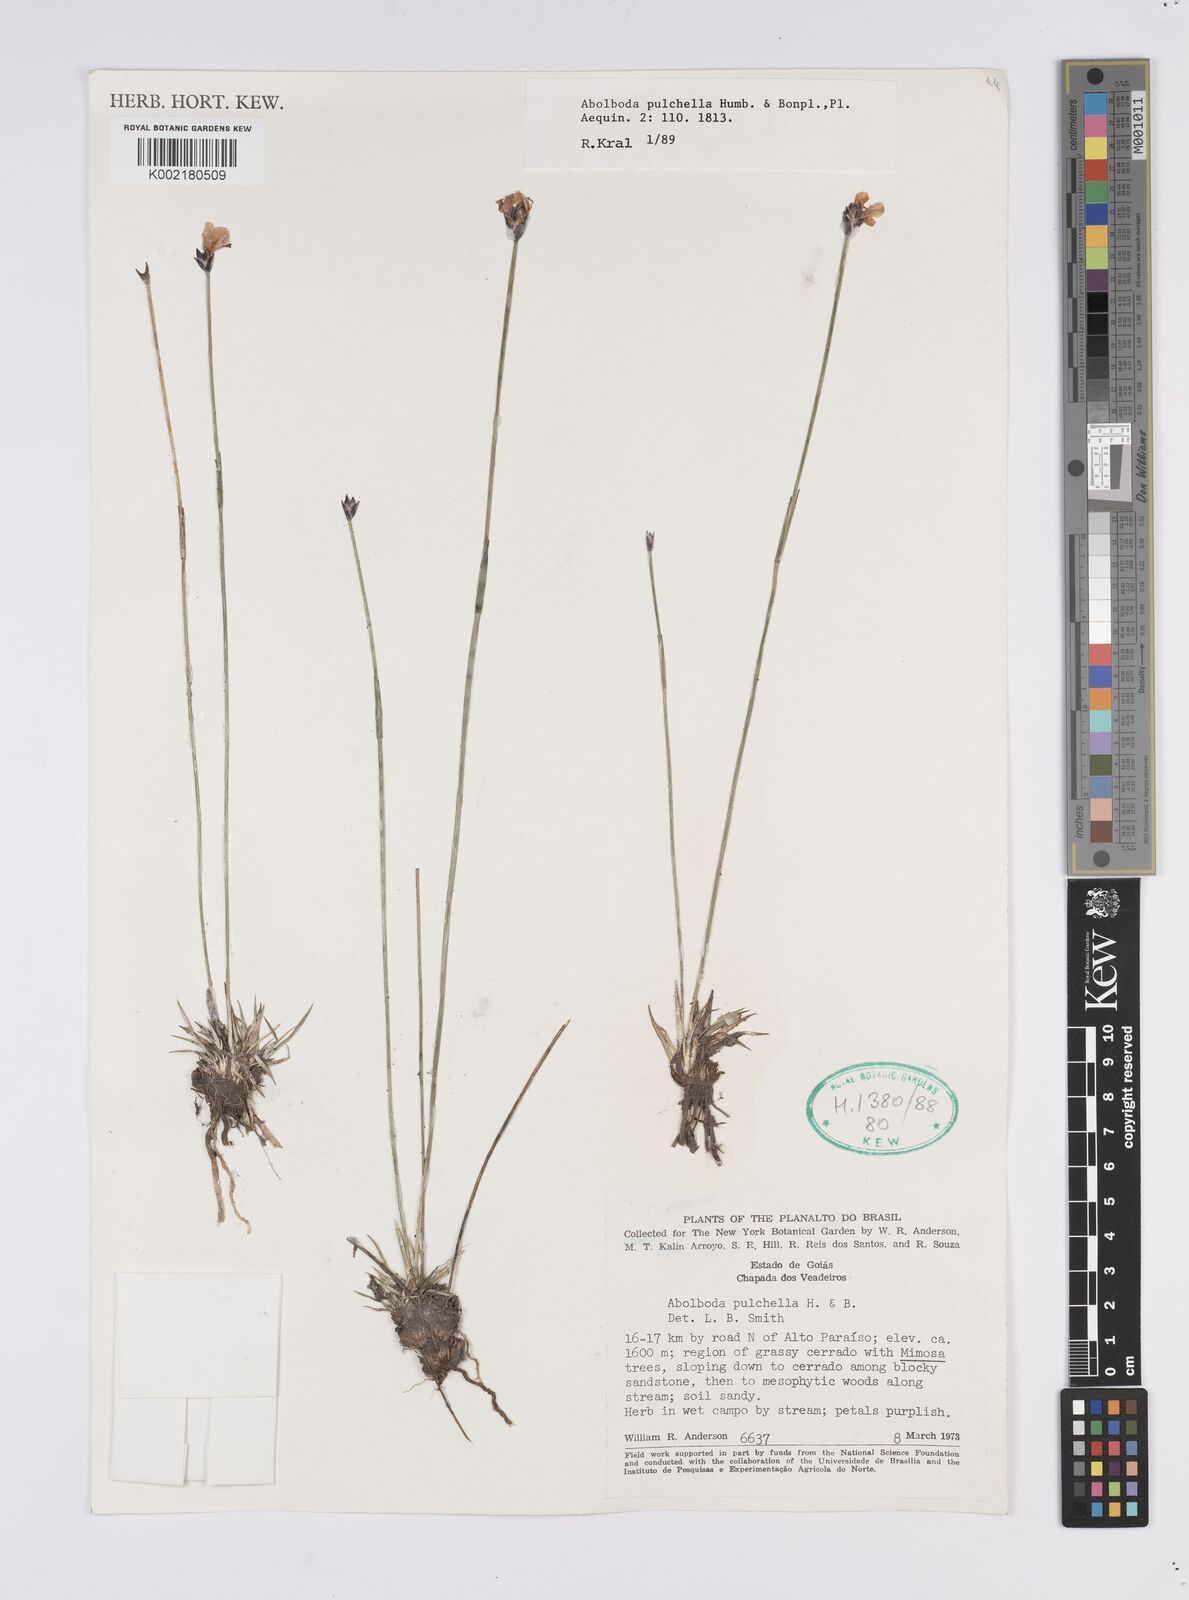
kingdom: Plantae
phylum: Tracheophyta
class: Liliopsida
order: Poales
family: Xyridaceae
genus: Abolboda
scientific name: Abolboda pulchella
